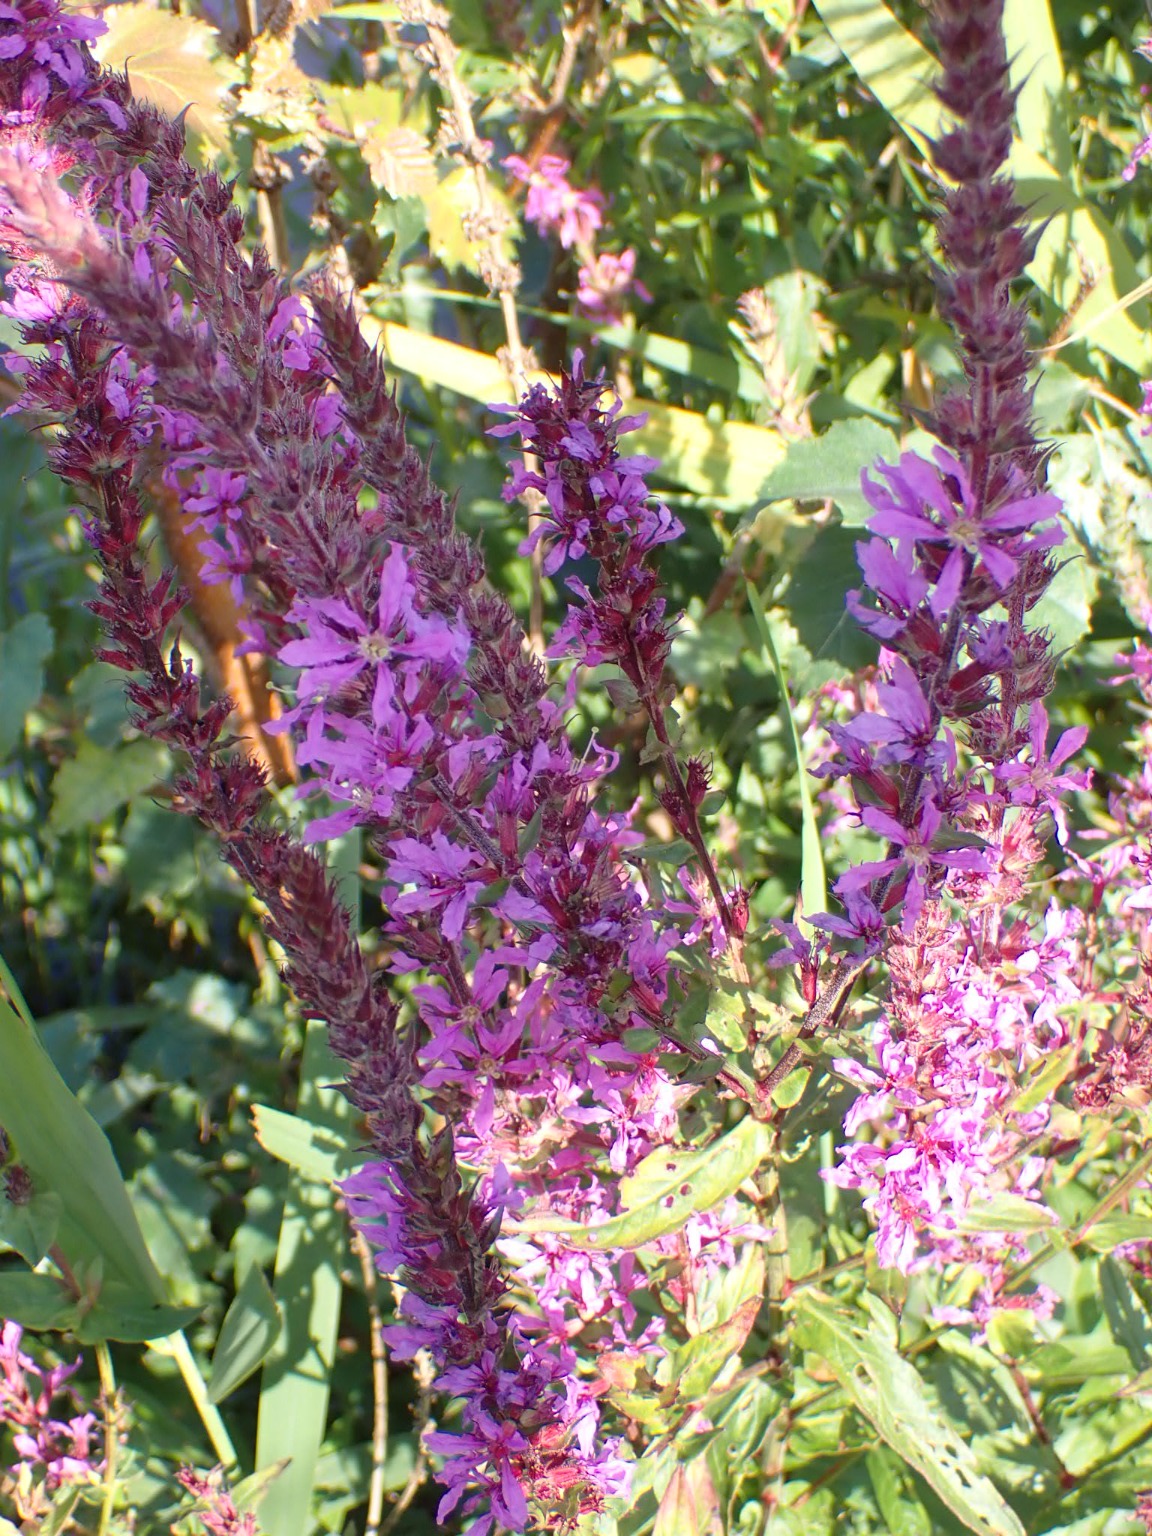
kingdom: Plantae
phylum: Tracheophyta
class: Magnoliopsida
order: Myrtales
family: Lythraceae
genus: Lythrum
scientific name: Lythrum salicaria
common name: Kattehale
